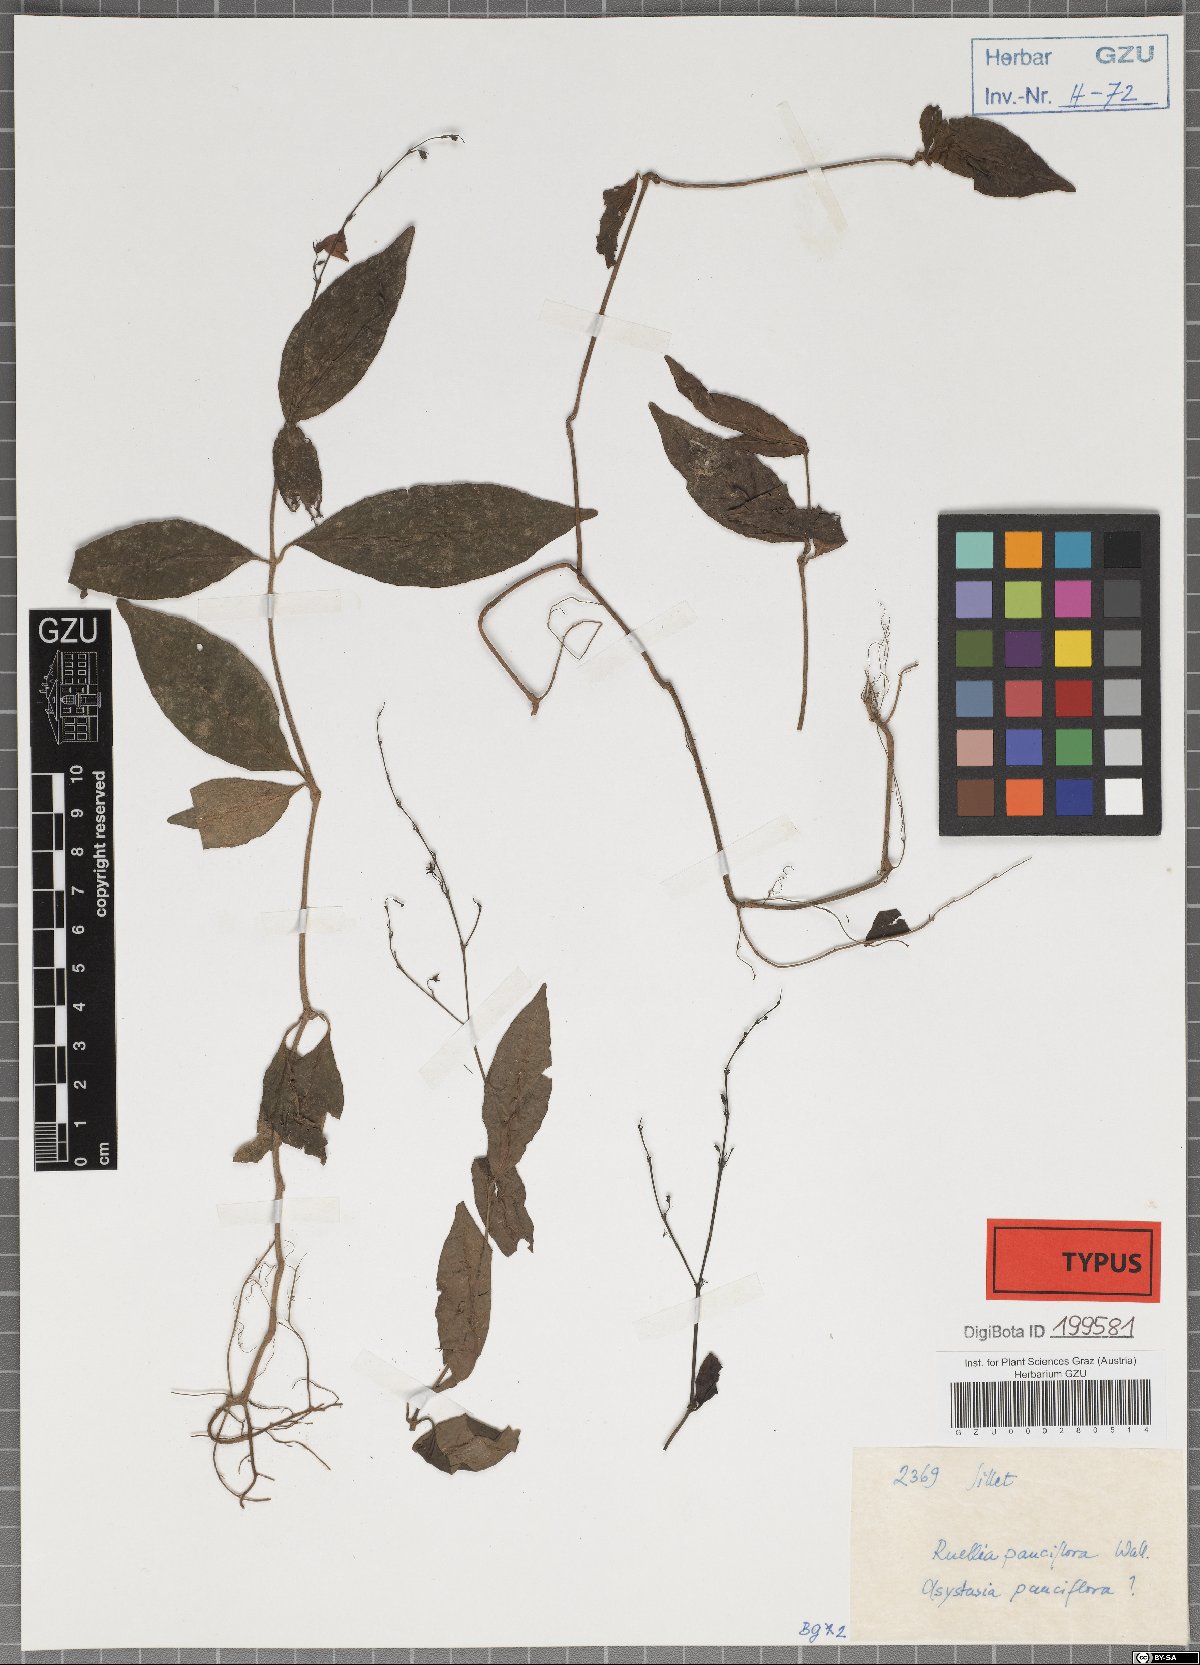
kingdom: Plantae
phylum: Tracheophyta
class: Magnoliopsida
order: Lamiales
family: Acanthaceae
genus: Codonacanthus
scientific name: Codonacanthus pauciflorus
